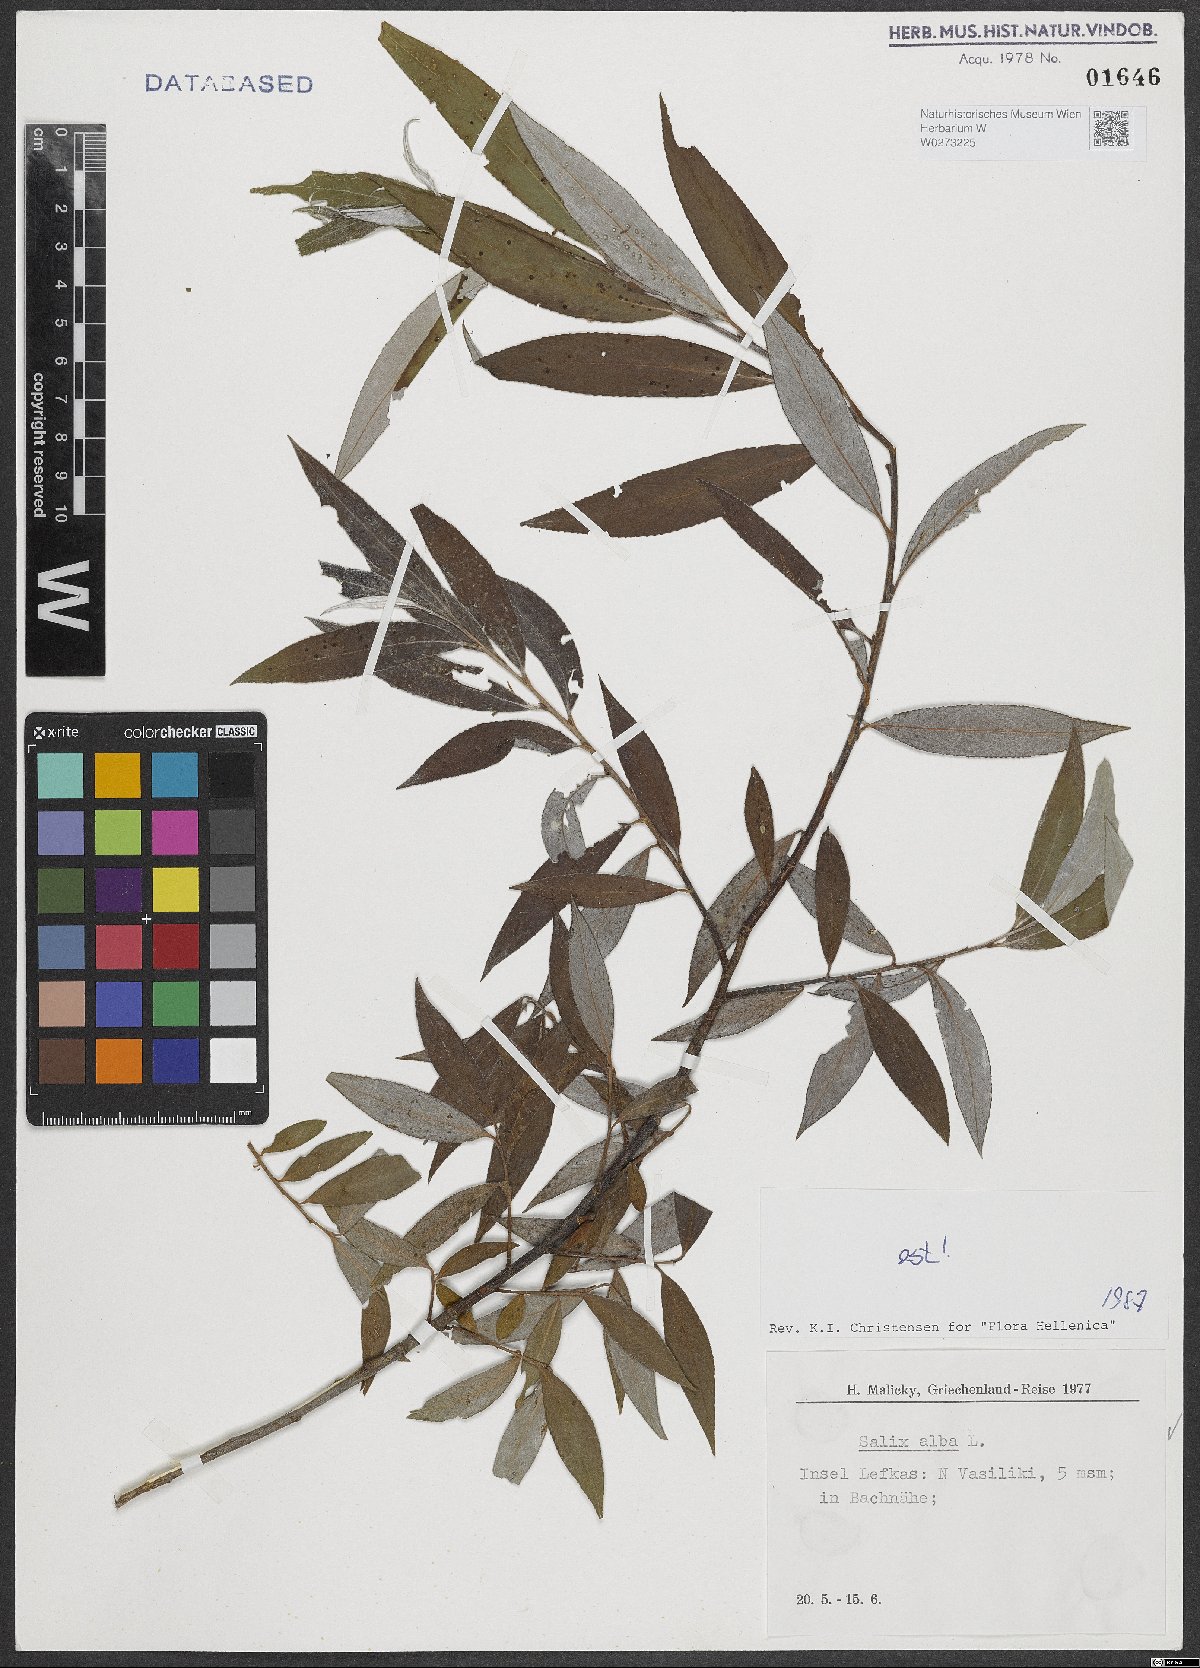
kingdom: Plantae
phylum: Tracheophyta
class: Magnoliopsida
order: Malpighiales
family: Salicaceae
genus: Salix
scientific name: Salix alba
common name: White willow
